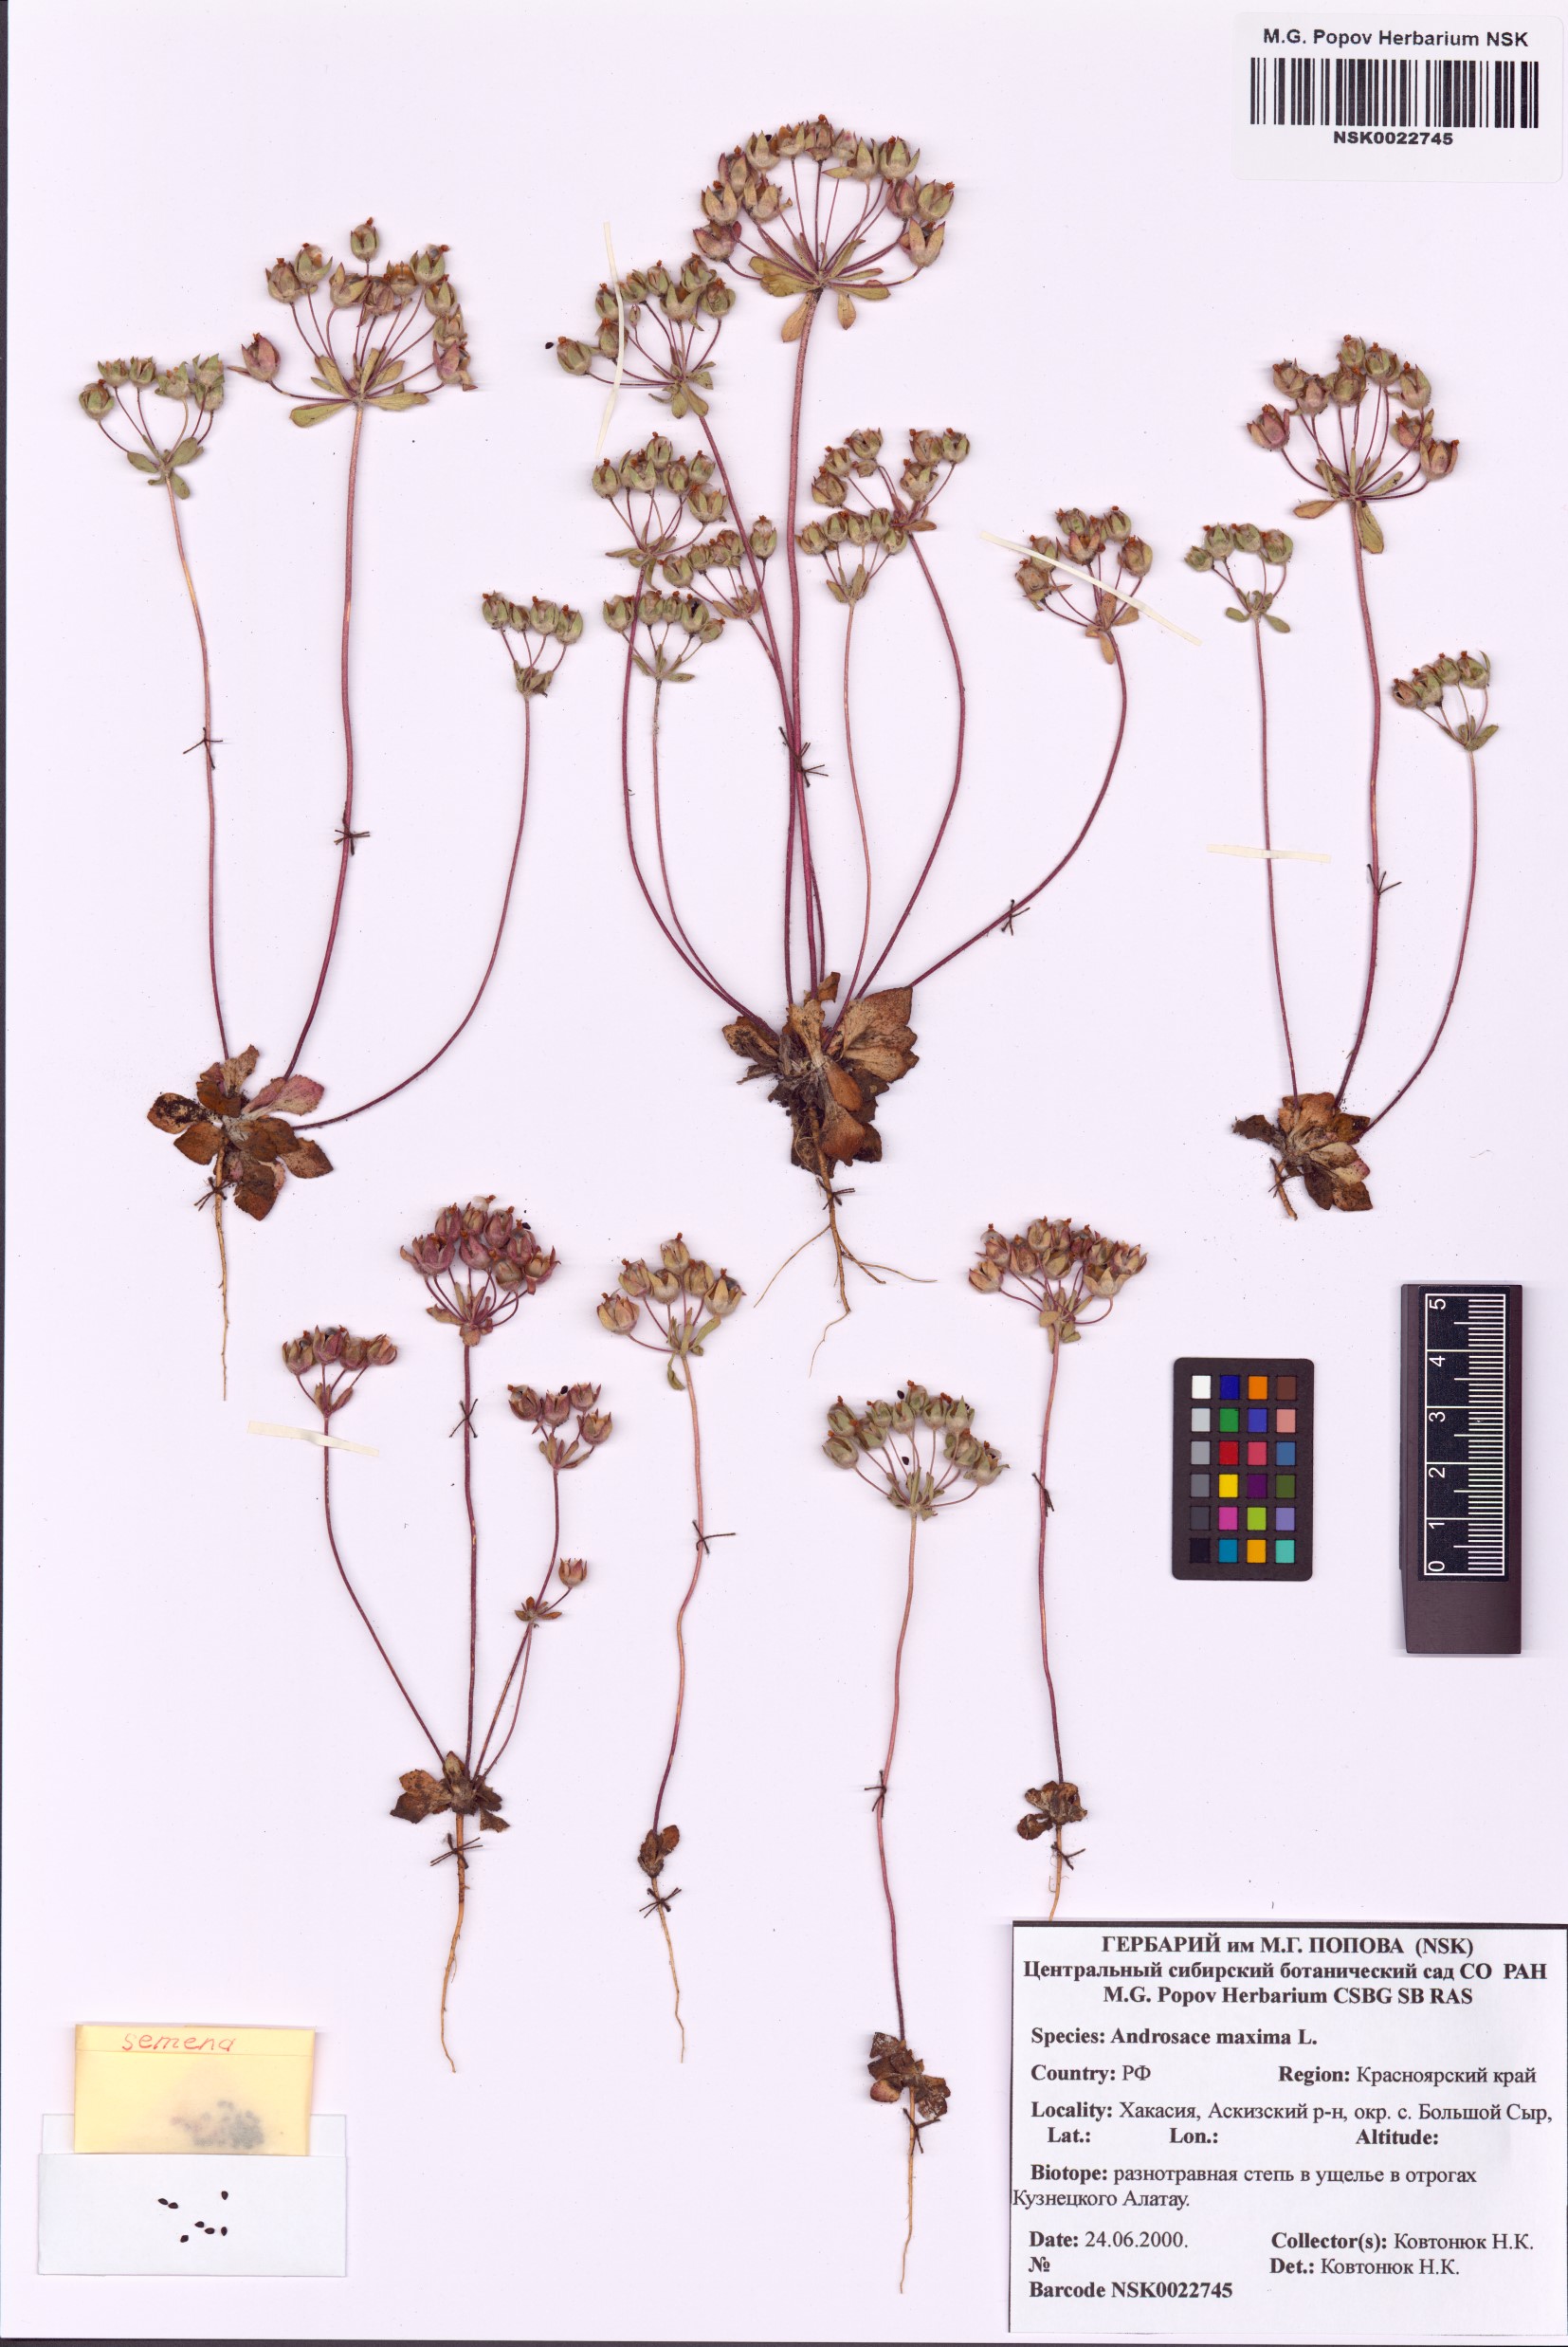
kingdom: Plantae
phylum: Tracheophyta
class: Magnoliopsida
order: Ericales
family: Primulaceae
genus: Androsace
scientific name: Androsace maxima
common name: Annual androsace
